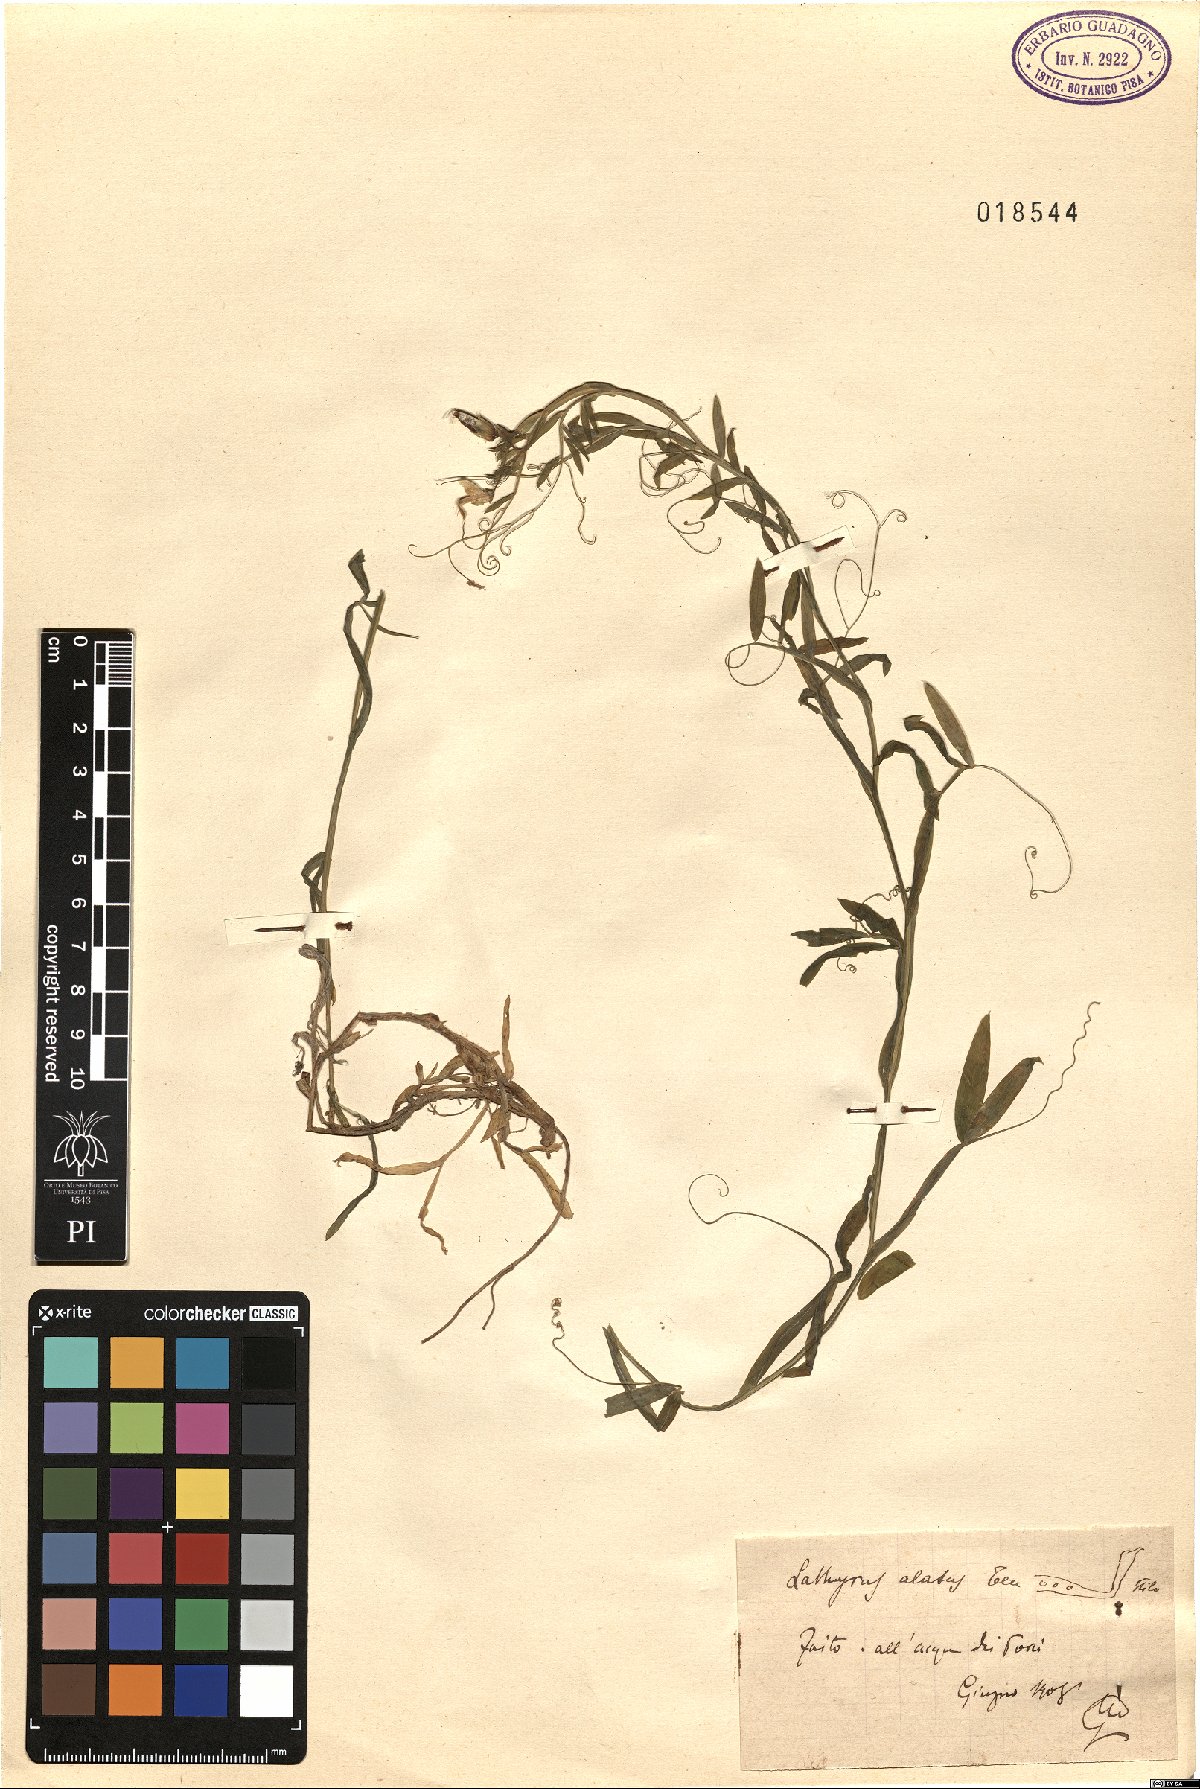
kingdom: Plantae
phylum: Tracheophyta
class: Magnoliopsida
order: Fabales
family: Fabaceae
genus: Lathyrus
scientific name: Lathyrus
